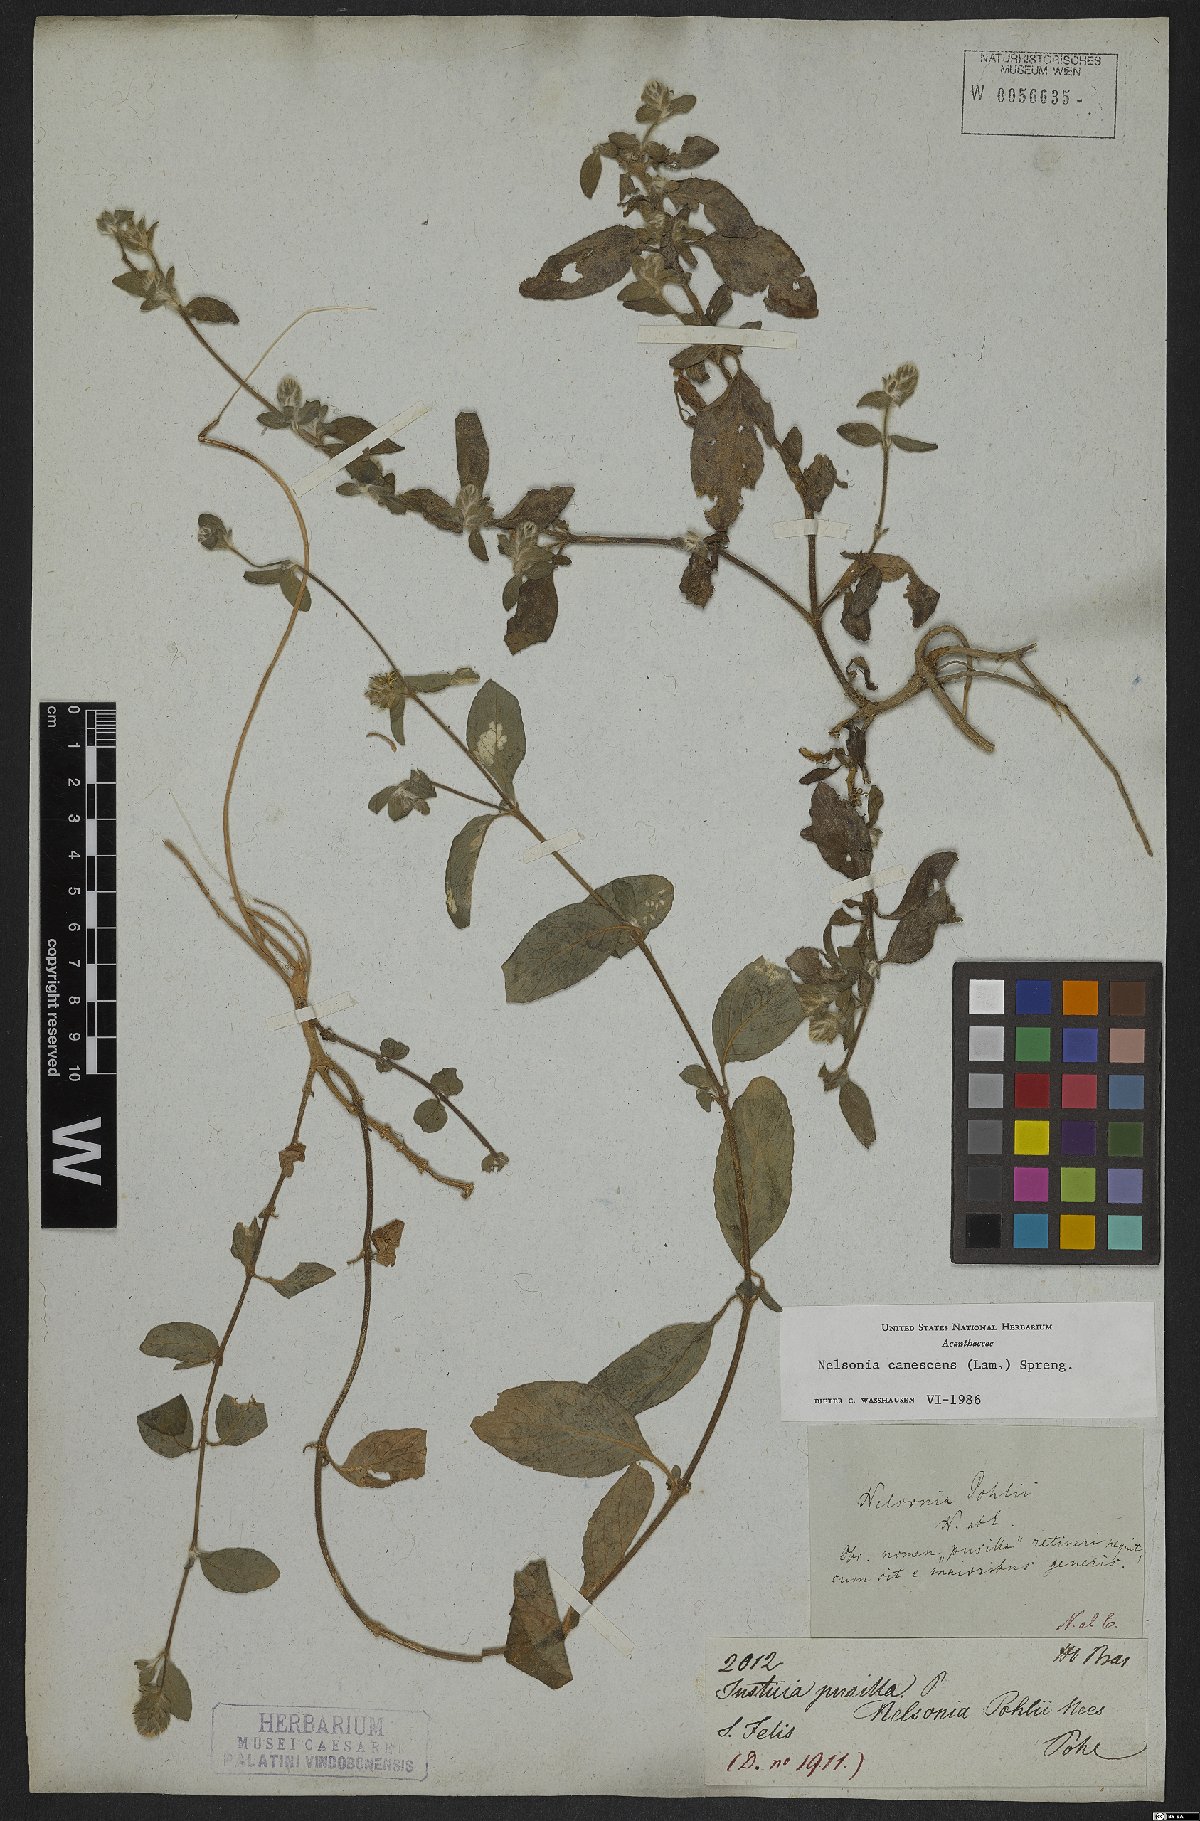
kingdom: Plantae
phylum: Tracheophyta
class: Magnoliopsida
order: Lamiales
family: Acanthaceae
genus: Nelsonia
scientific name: Nelsonia canescens
